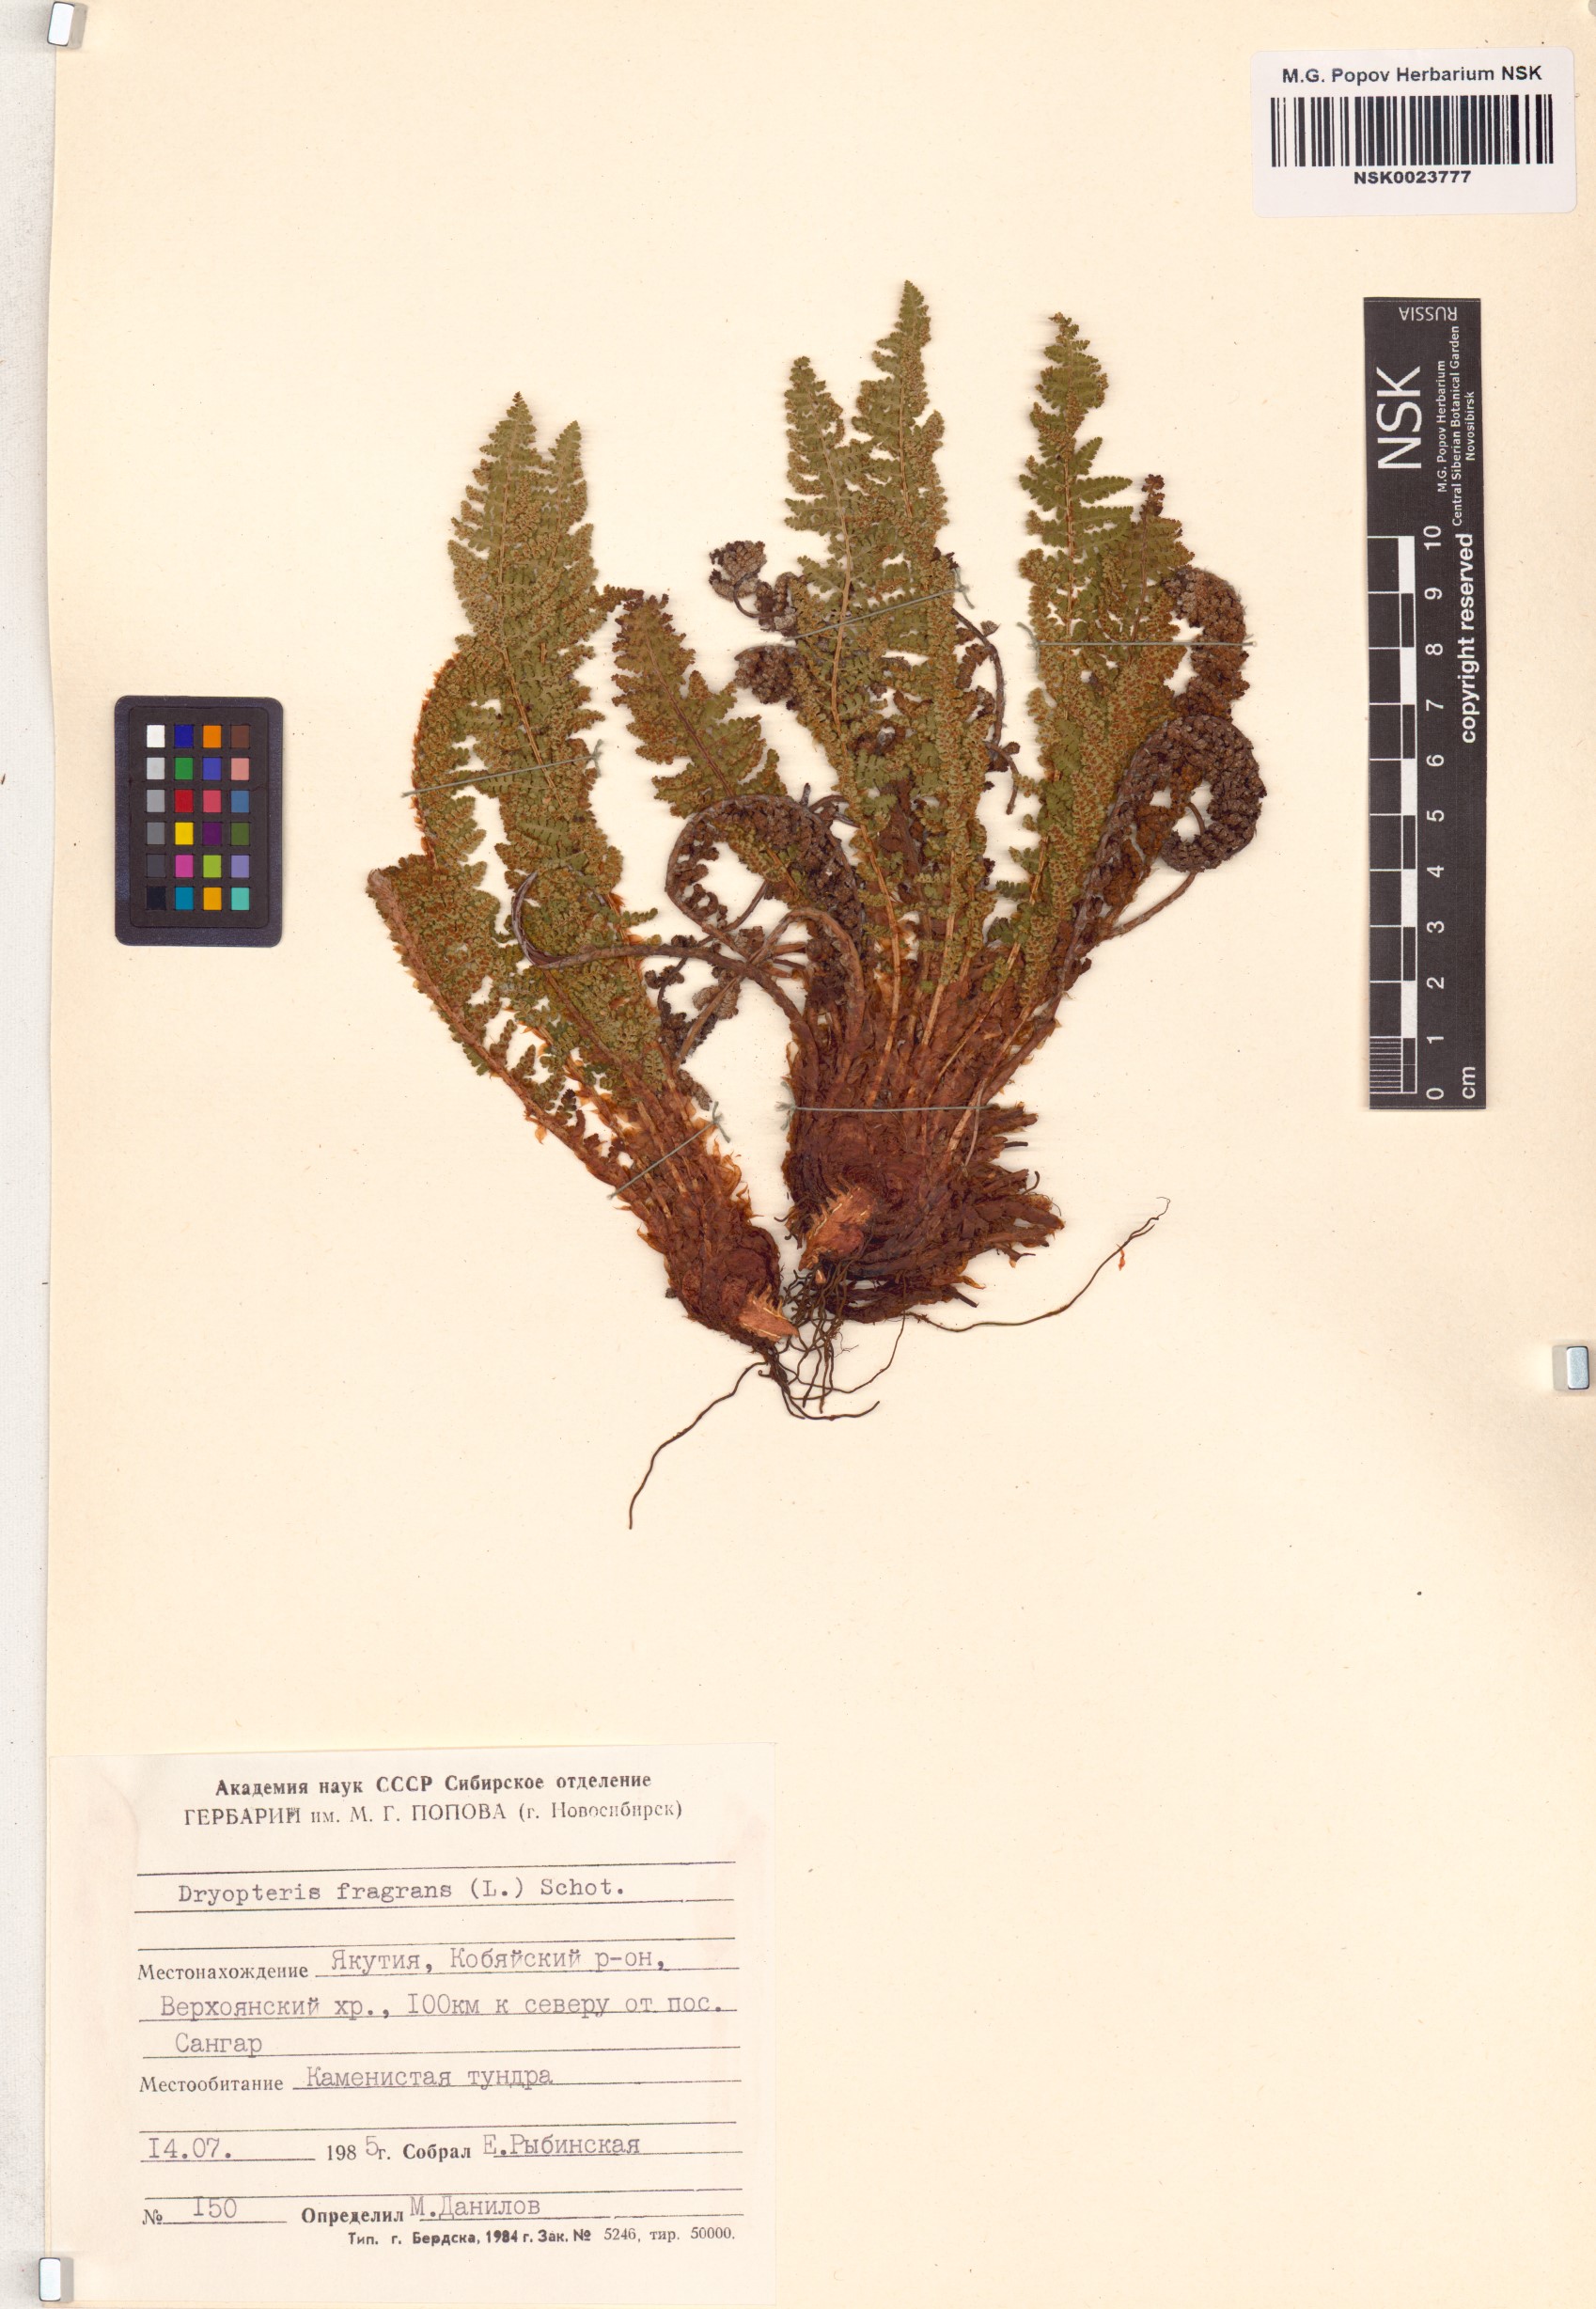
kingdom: Plantae
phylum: Tracheophyta
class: Polypodiopsida
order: Polypodiales
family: Dryopteridaceae
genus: Dryopteris
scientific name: Dryopteris fragrans
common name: Fragrant wood fern
